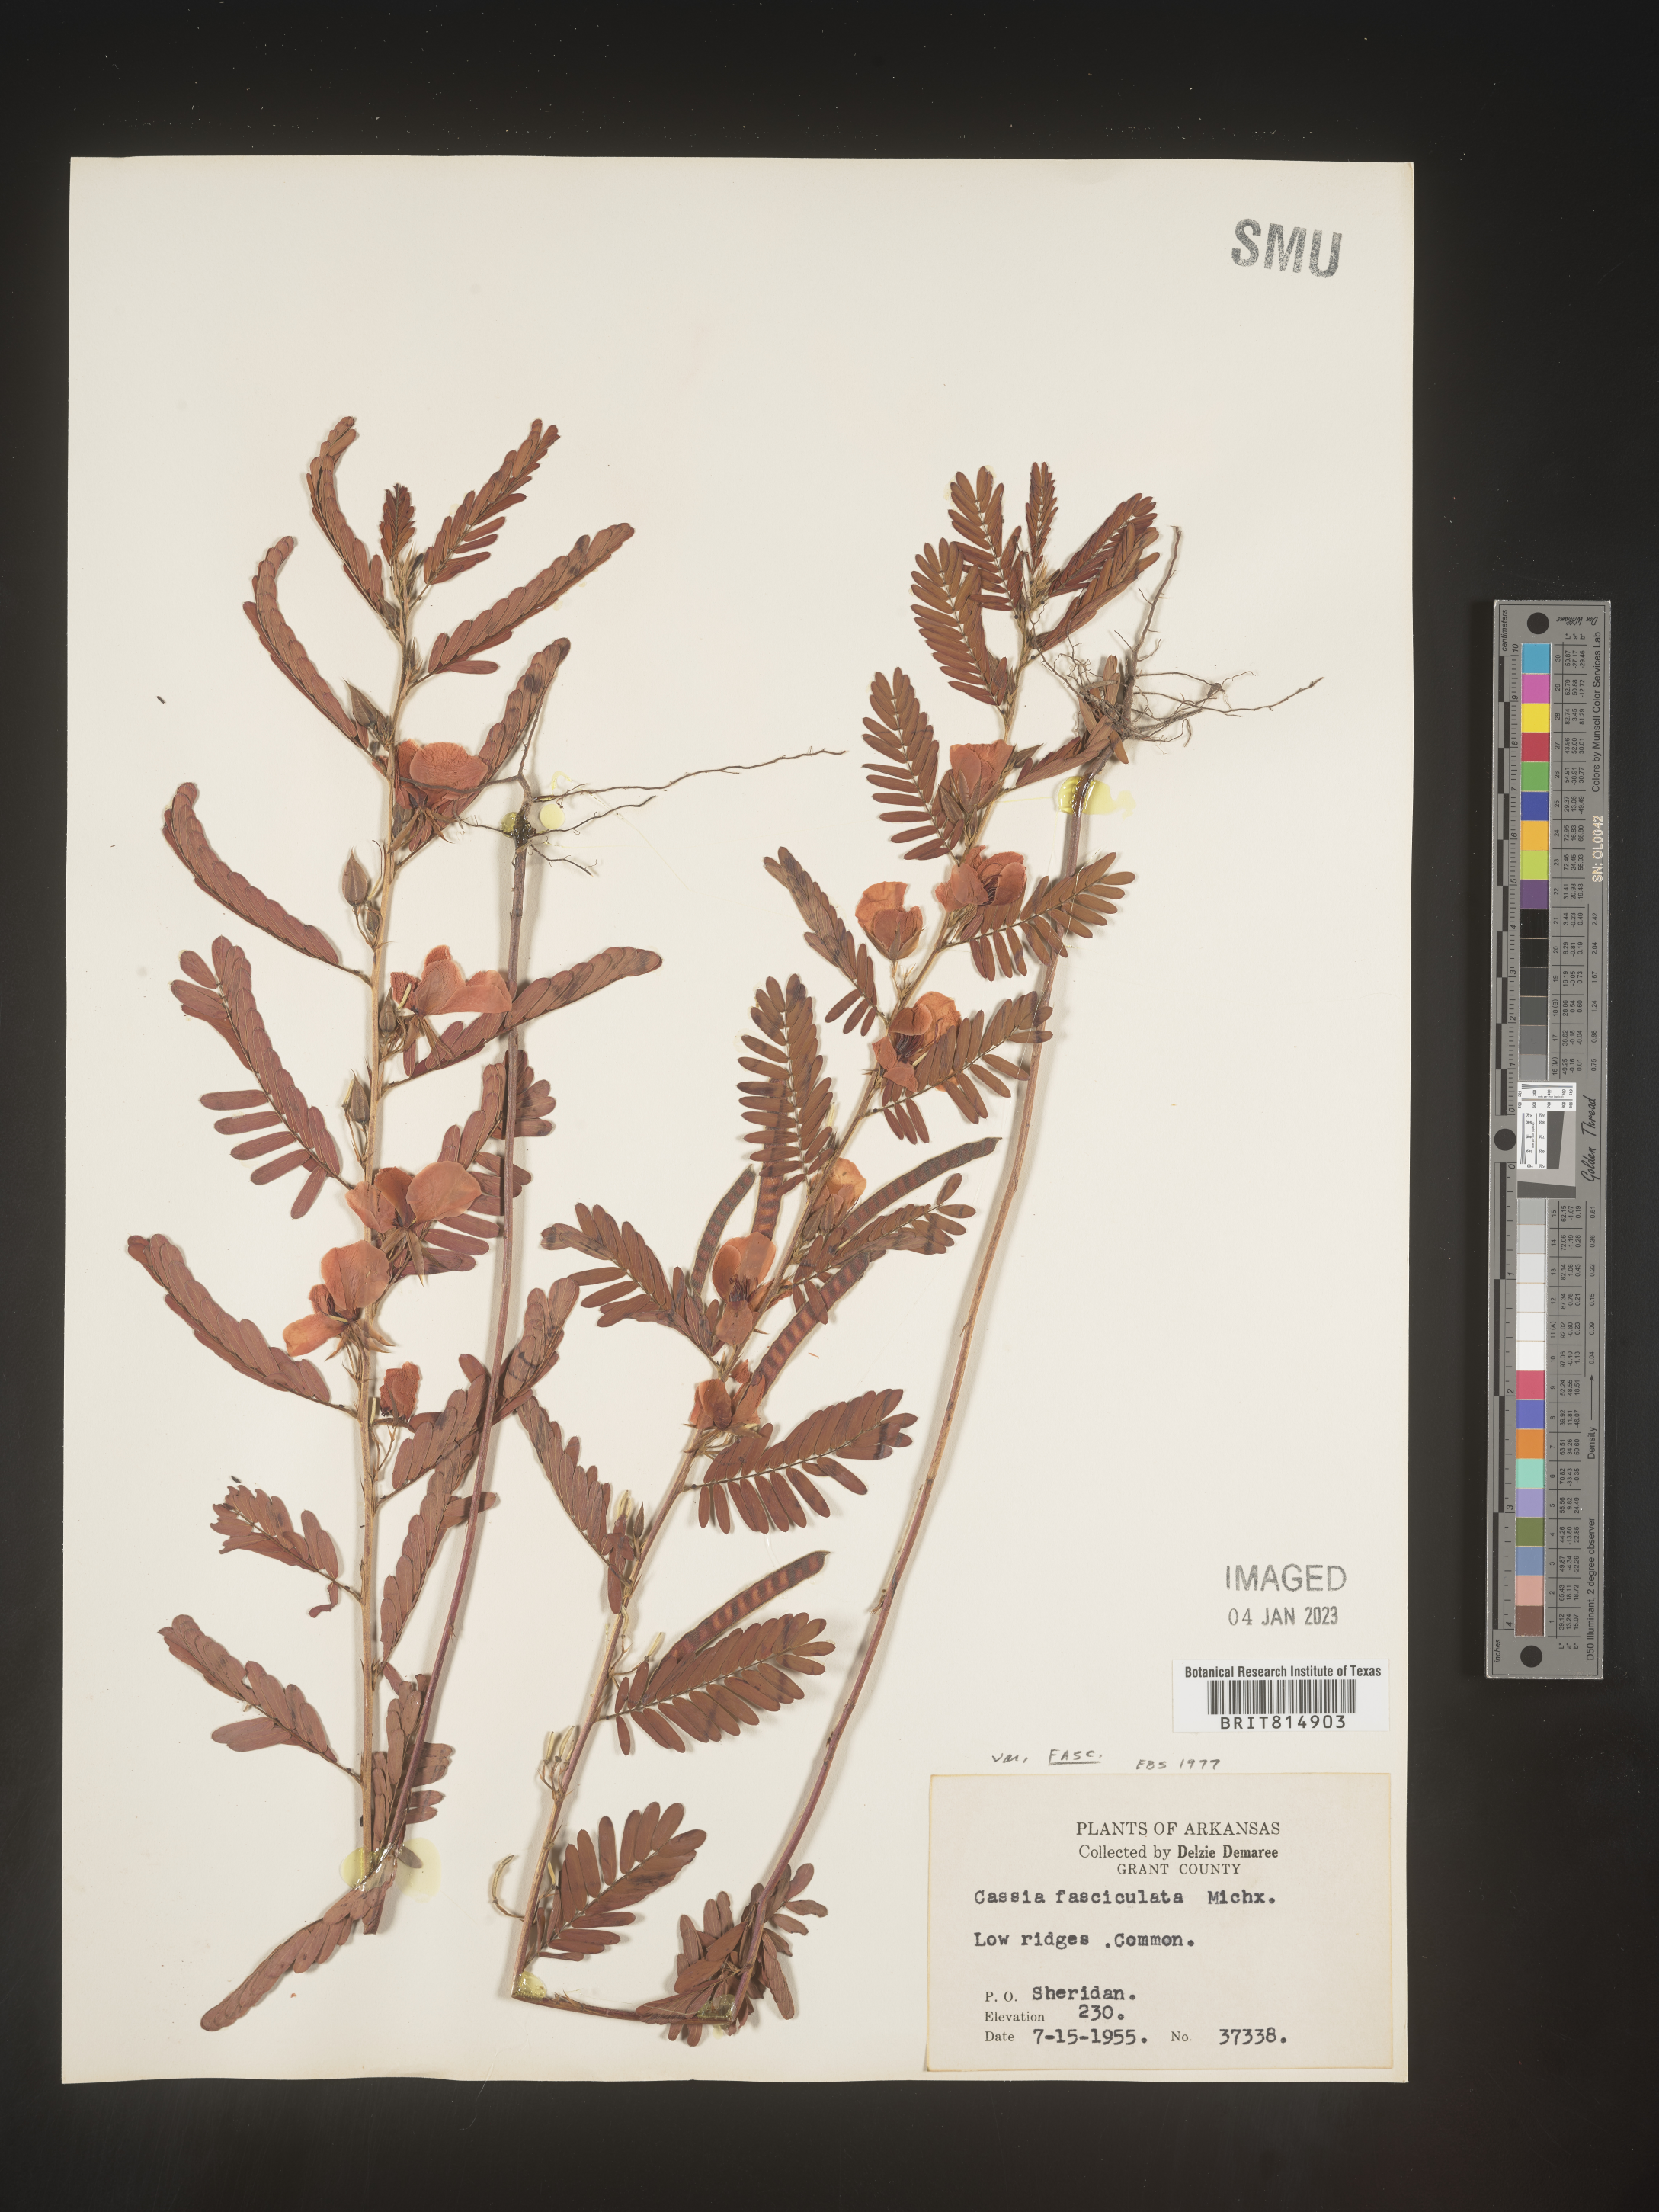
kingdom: Plantae
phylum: Tracheophyta
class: Magnoliopsida
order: Fabales
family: Fabaceae
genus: Chamaecrista
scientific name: Chamaecrista fasciculata
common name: Golden cassia
